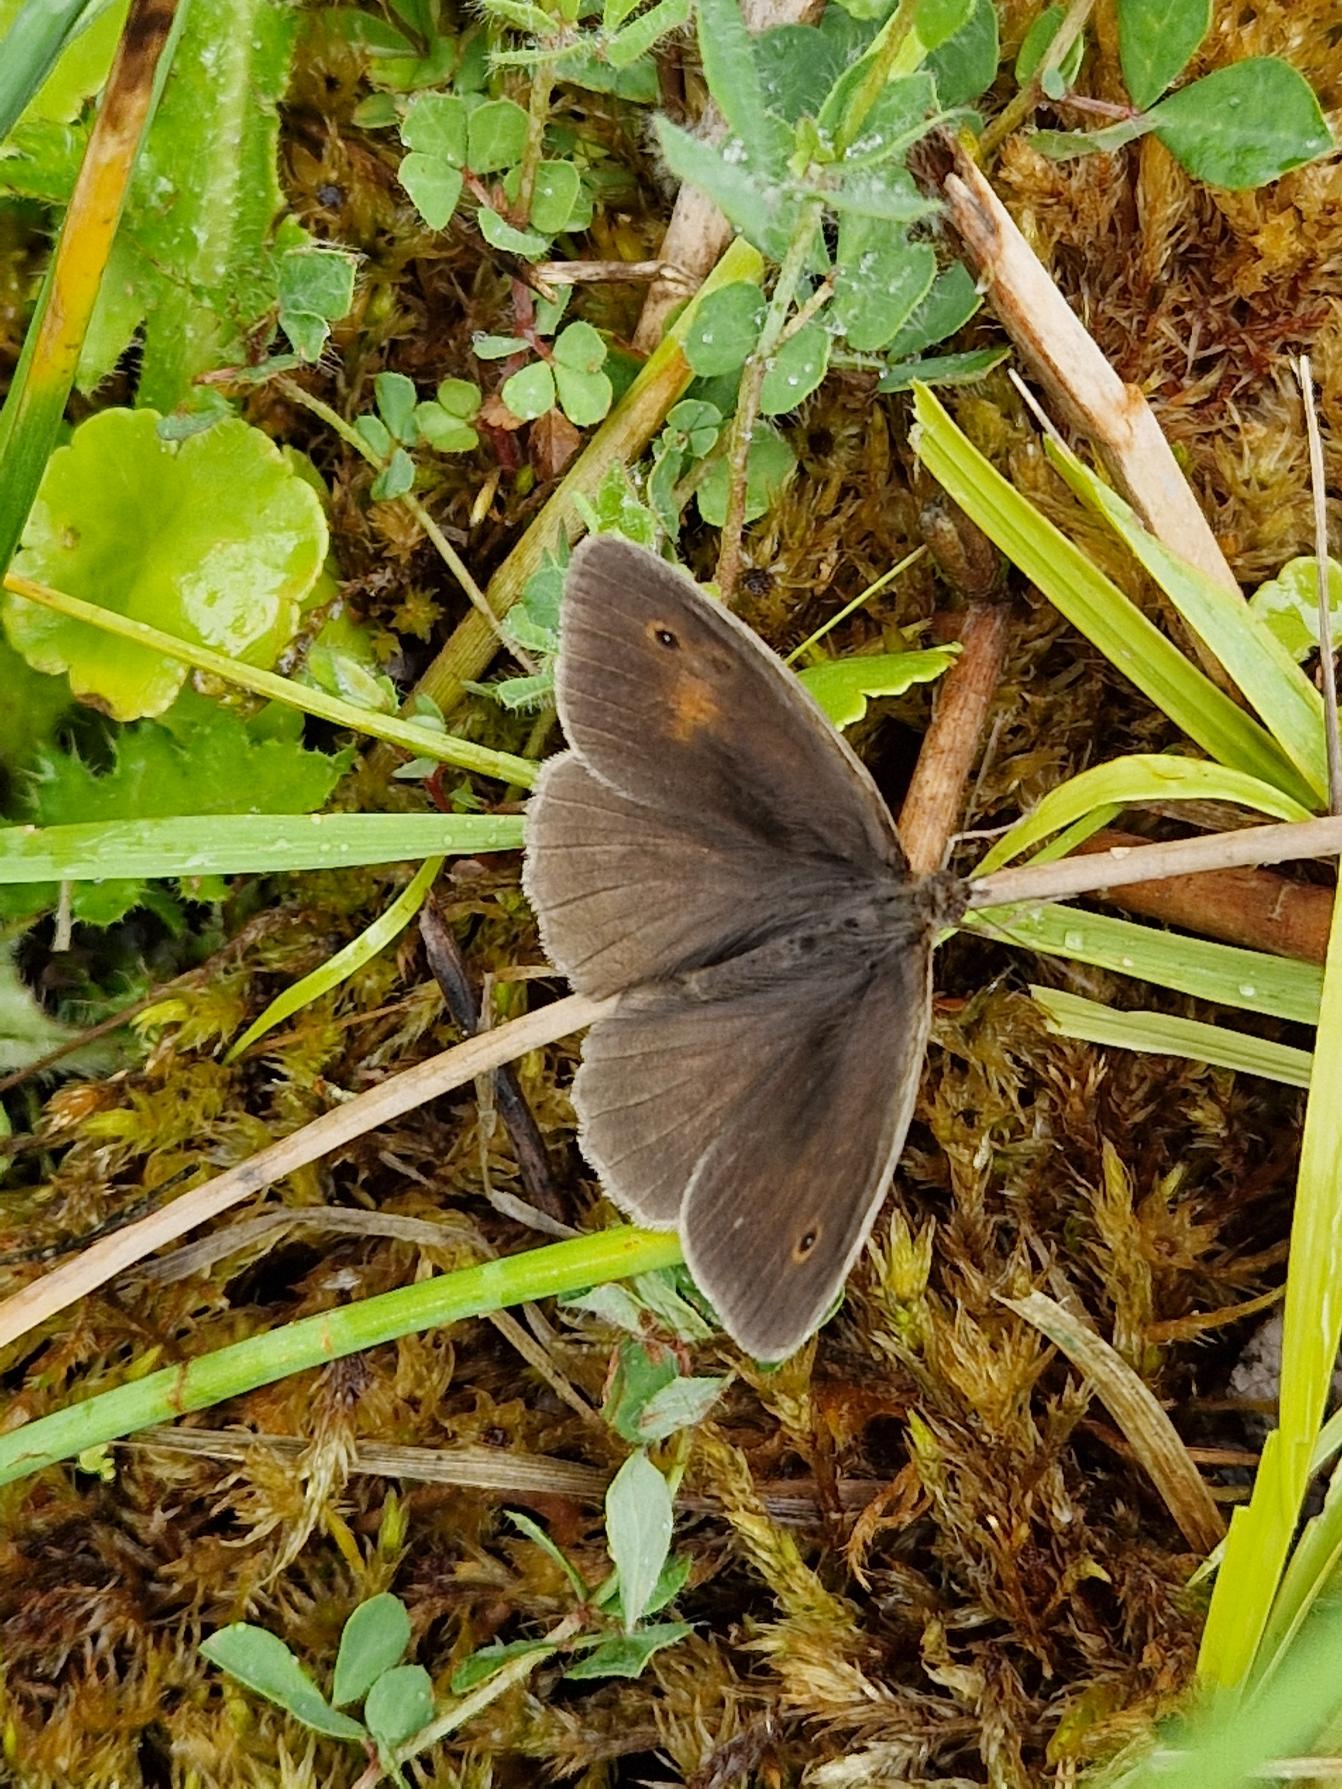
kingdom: Animalia
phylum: Arthropoda
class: Insecta
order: Lepidoptera
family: Nymphalidae
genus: Maniola
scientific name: Maniola jurtina
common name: Græsrandøje
